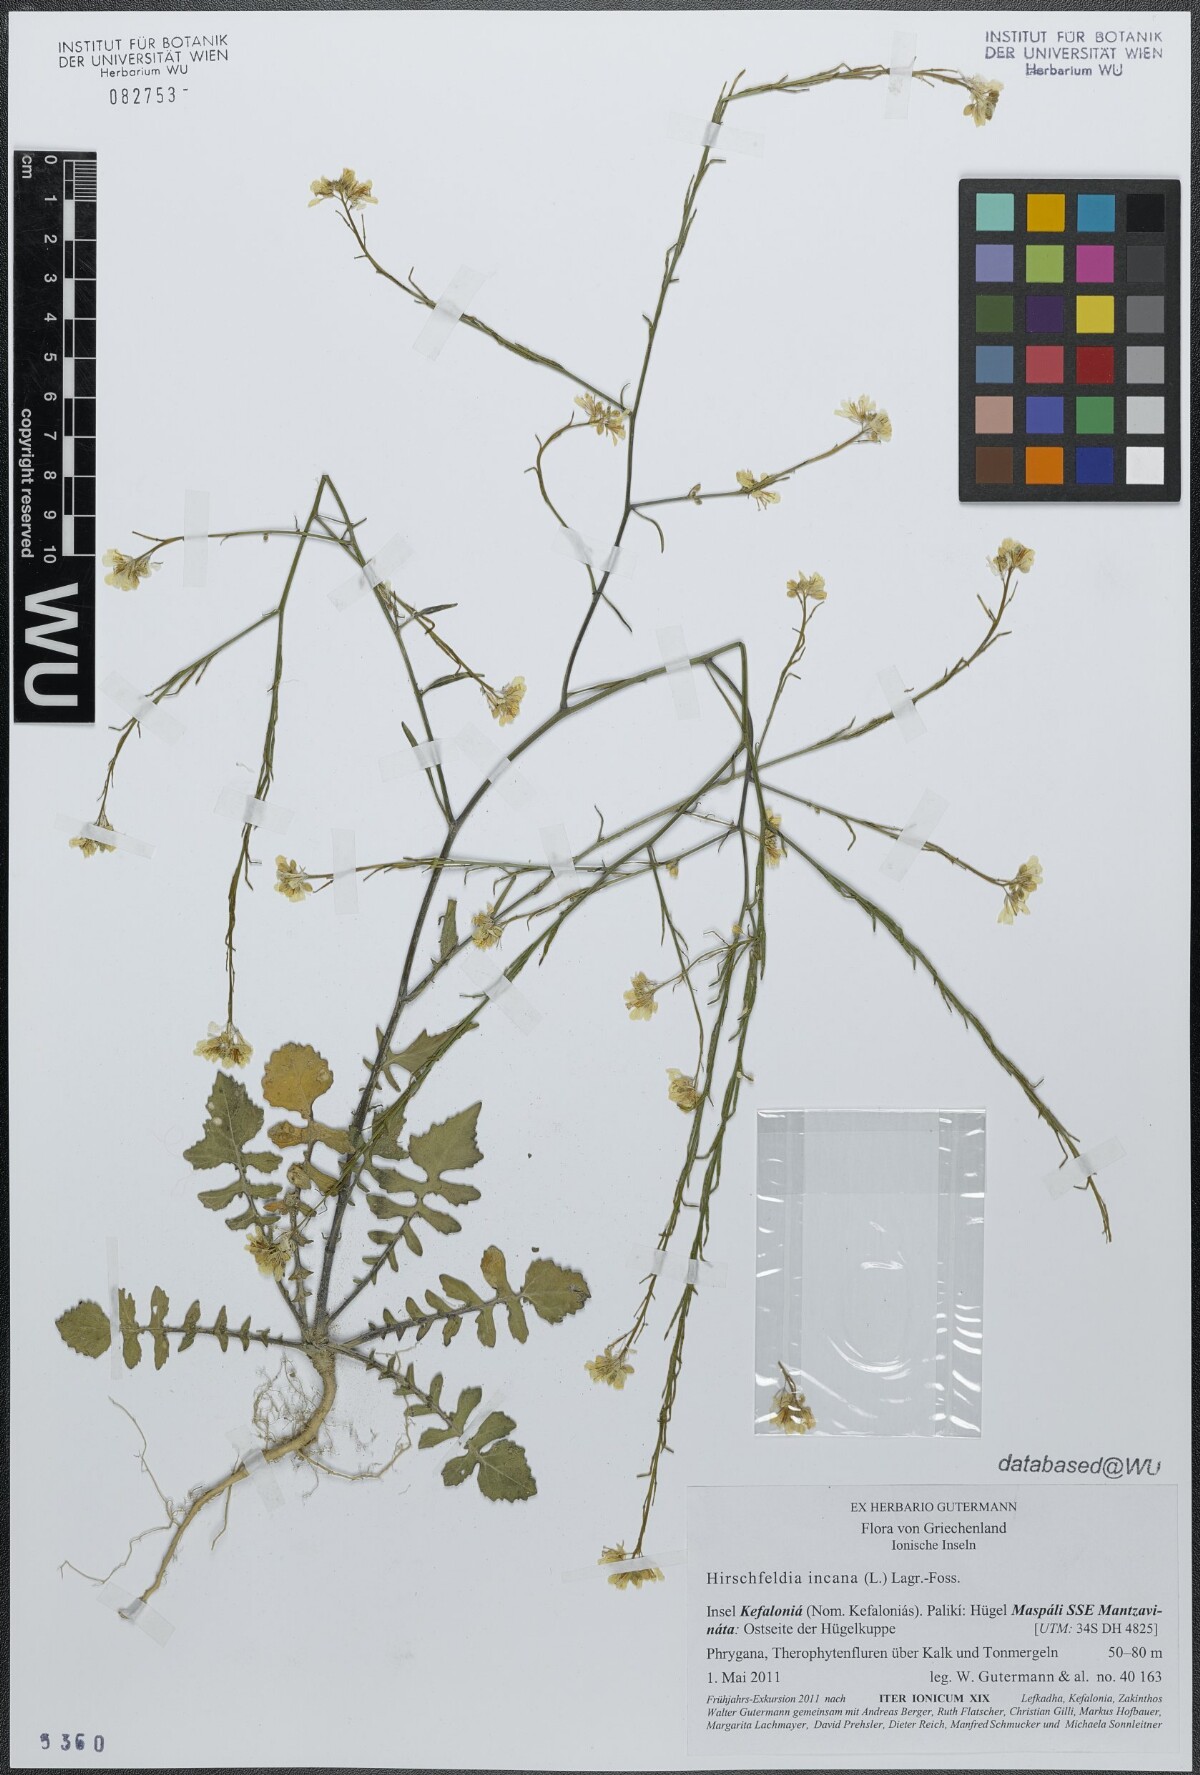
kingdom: Plantae
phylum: Tracheophyta
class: Magnoliopsida
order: Brassicales
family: Brassicaceae
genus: Hirschfeldia
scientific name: Hirschfeldia incana
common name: Hoary mustard
